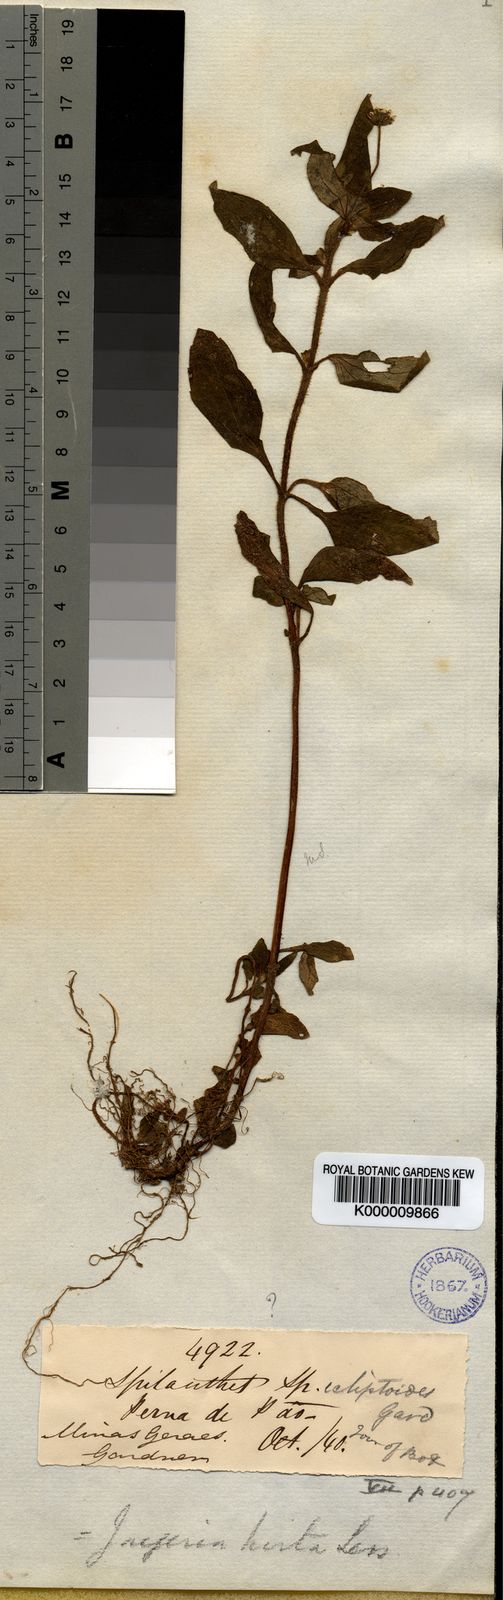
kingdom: Plantae
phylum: Tracheophyta
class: Magnoliopsida
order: Asterales
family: Asteraceae
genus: Jaegeria
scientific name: Jaegeria hirta
